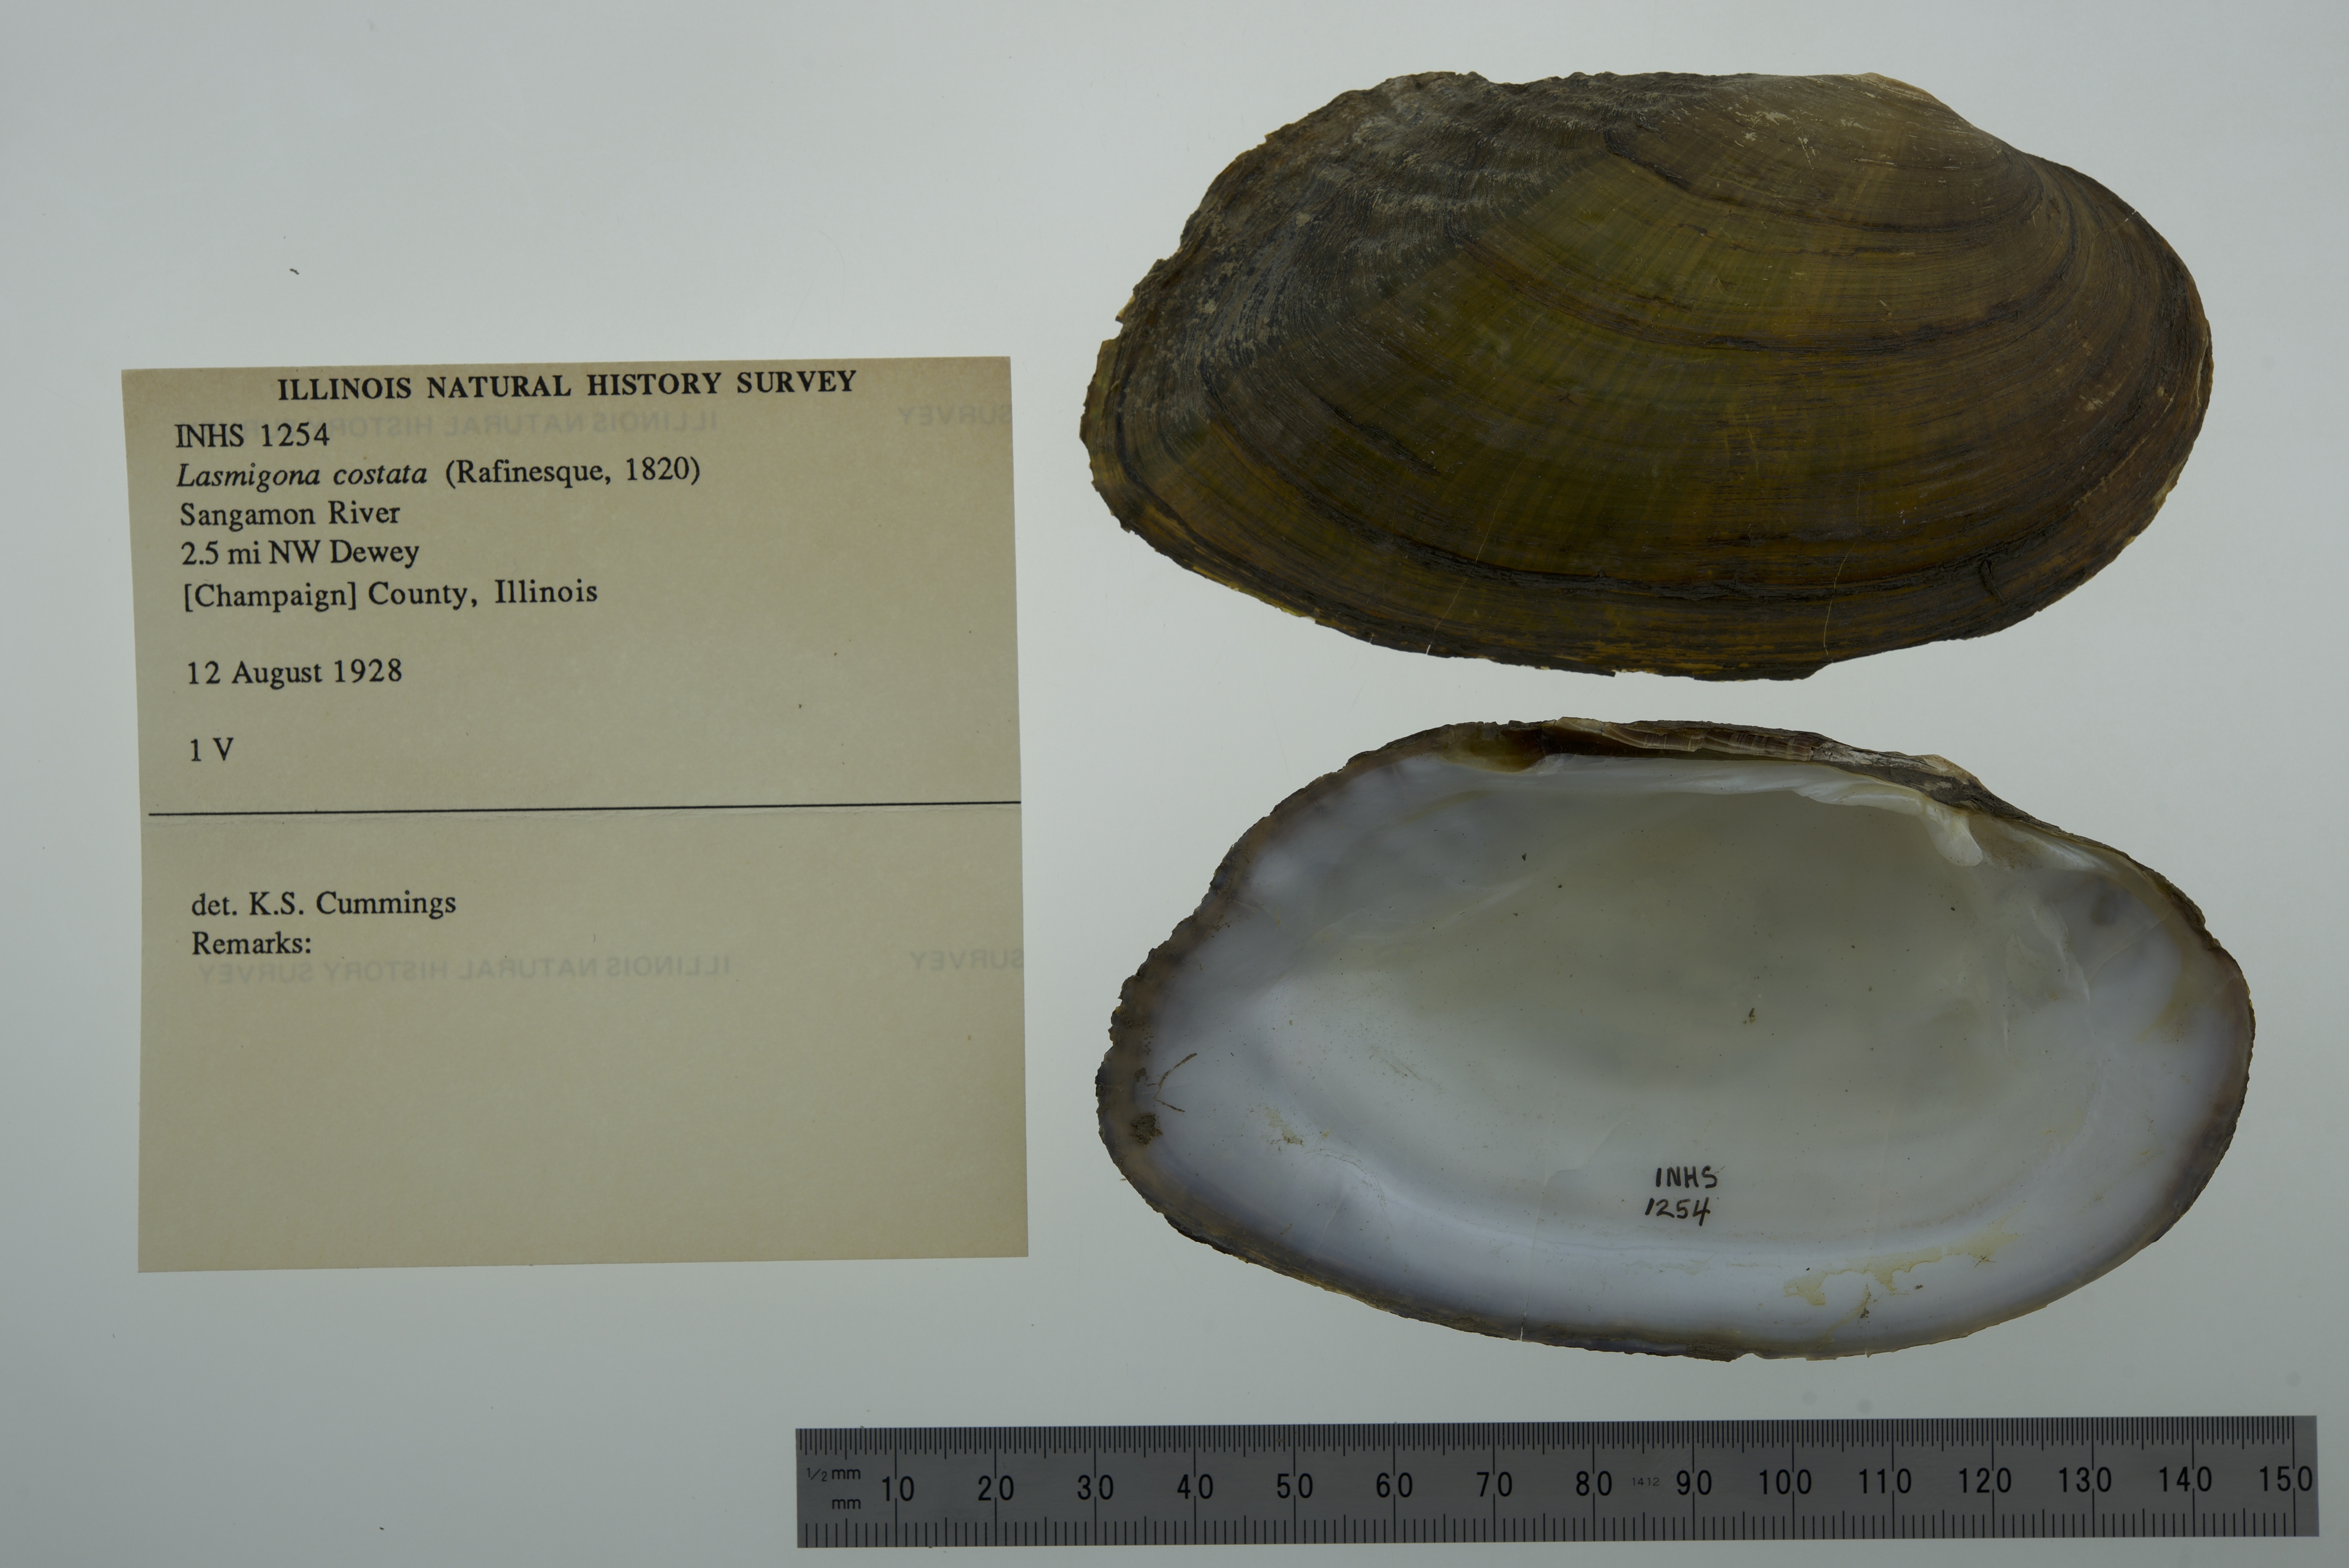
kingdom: Animalia
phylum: Mollusca
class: Bivalvia
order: Unionida
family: Unionidae
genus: Lasmigona
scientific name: Lasmigona costata
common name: Flutedshell
